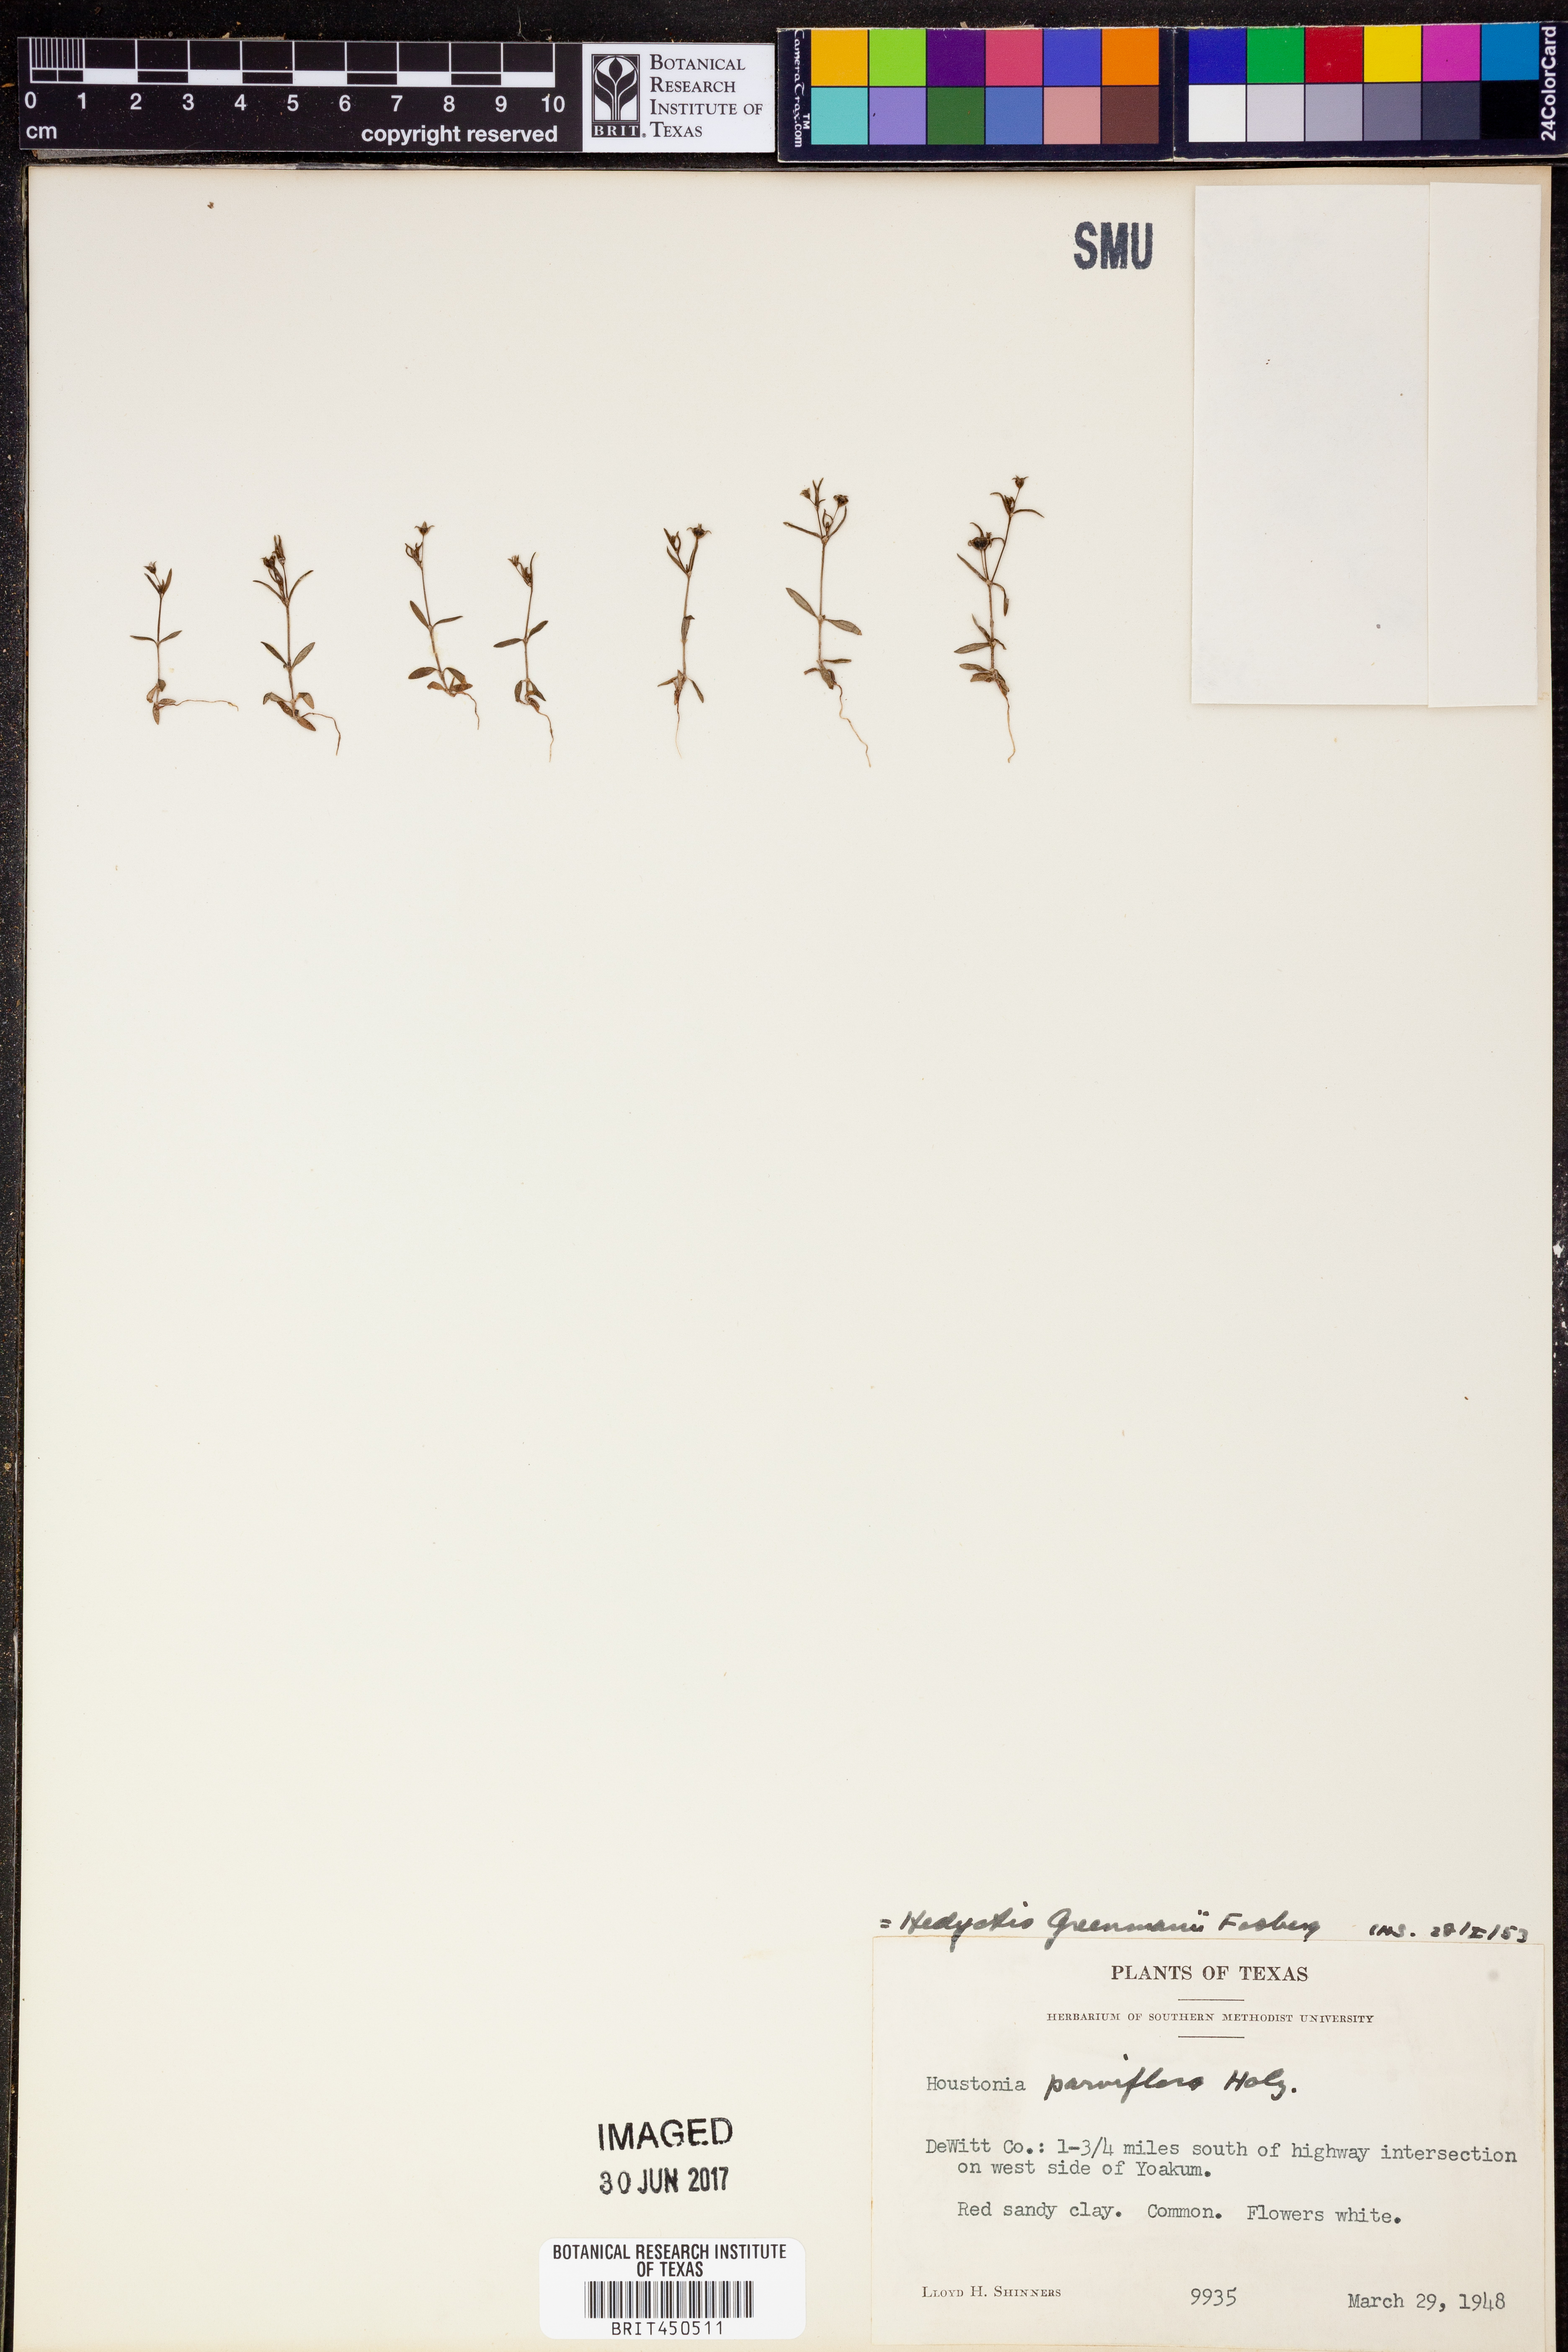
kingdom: Plantae
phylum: Tracheophyta
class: Magnoliopsida
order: Gentianales
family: Rubiaceae
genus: Houstonia
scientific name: Houstonia parviflora
